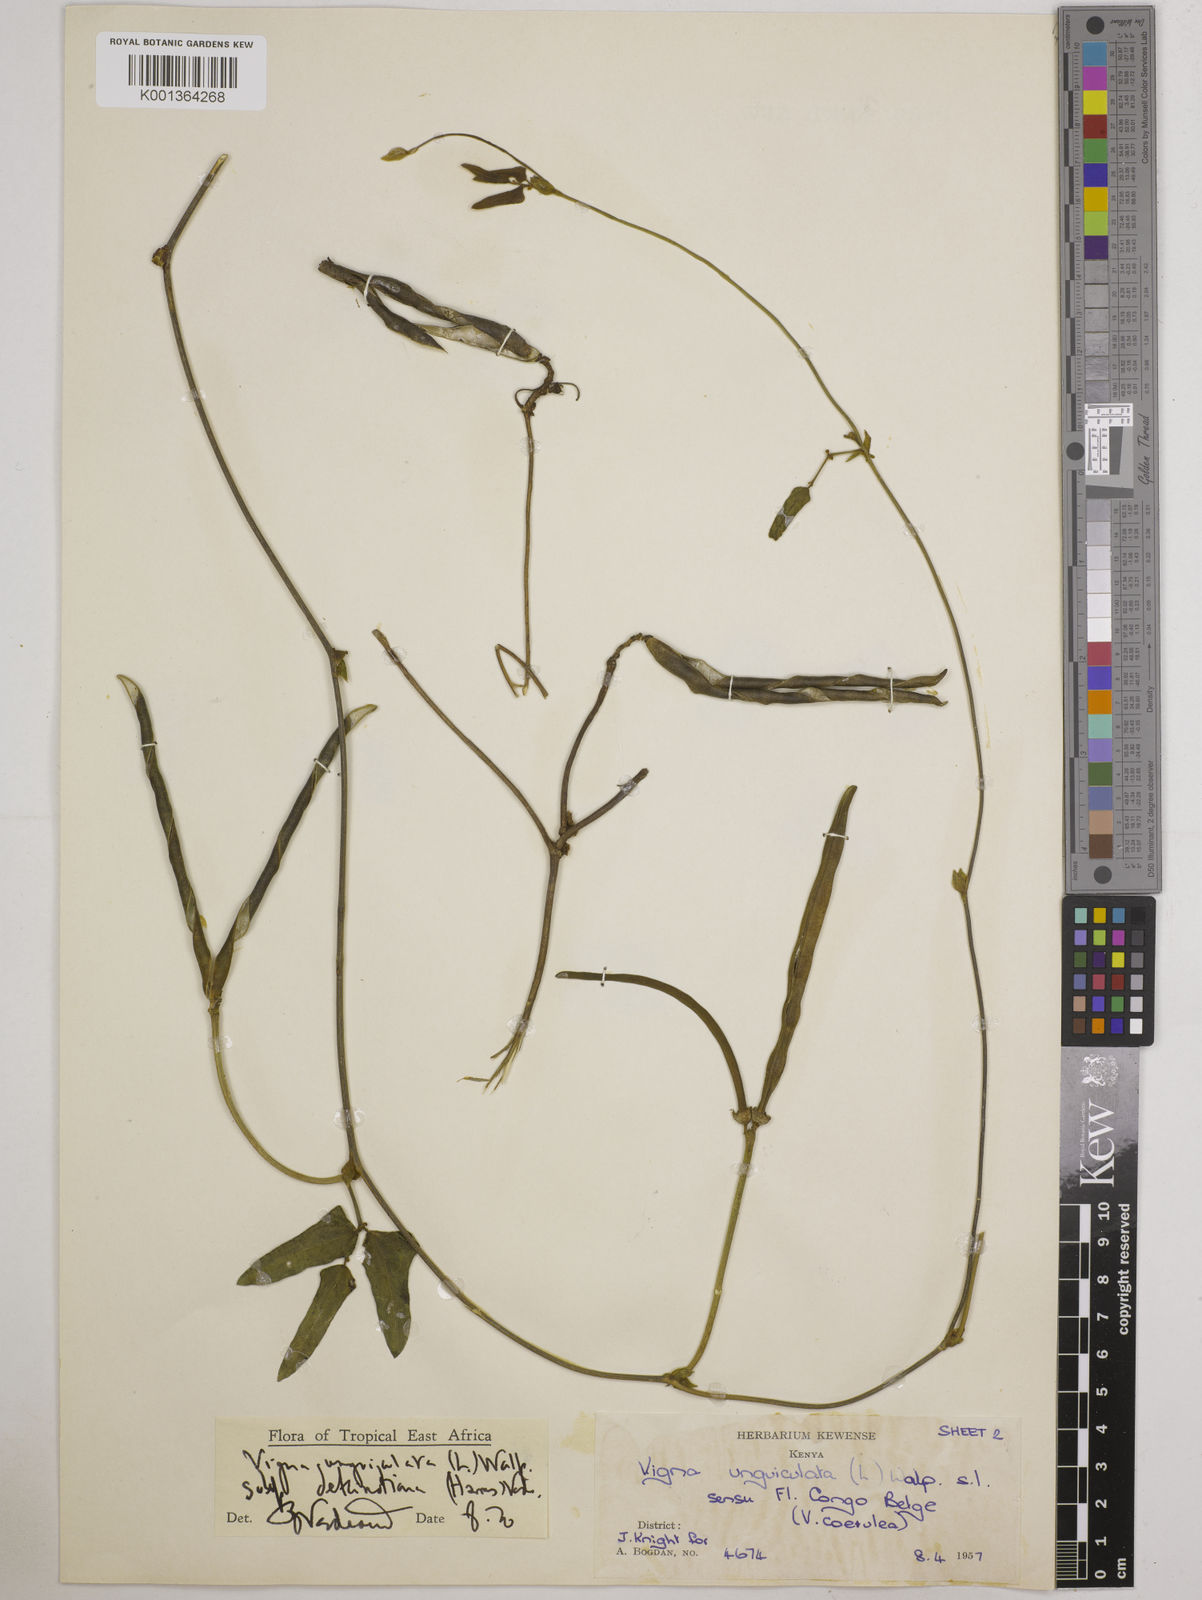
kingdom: Plantae
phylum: Tracheophyta
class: Magnoliopsida
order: Fabales
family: Fabaceae
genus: Vigna
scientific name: Vigna
